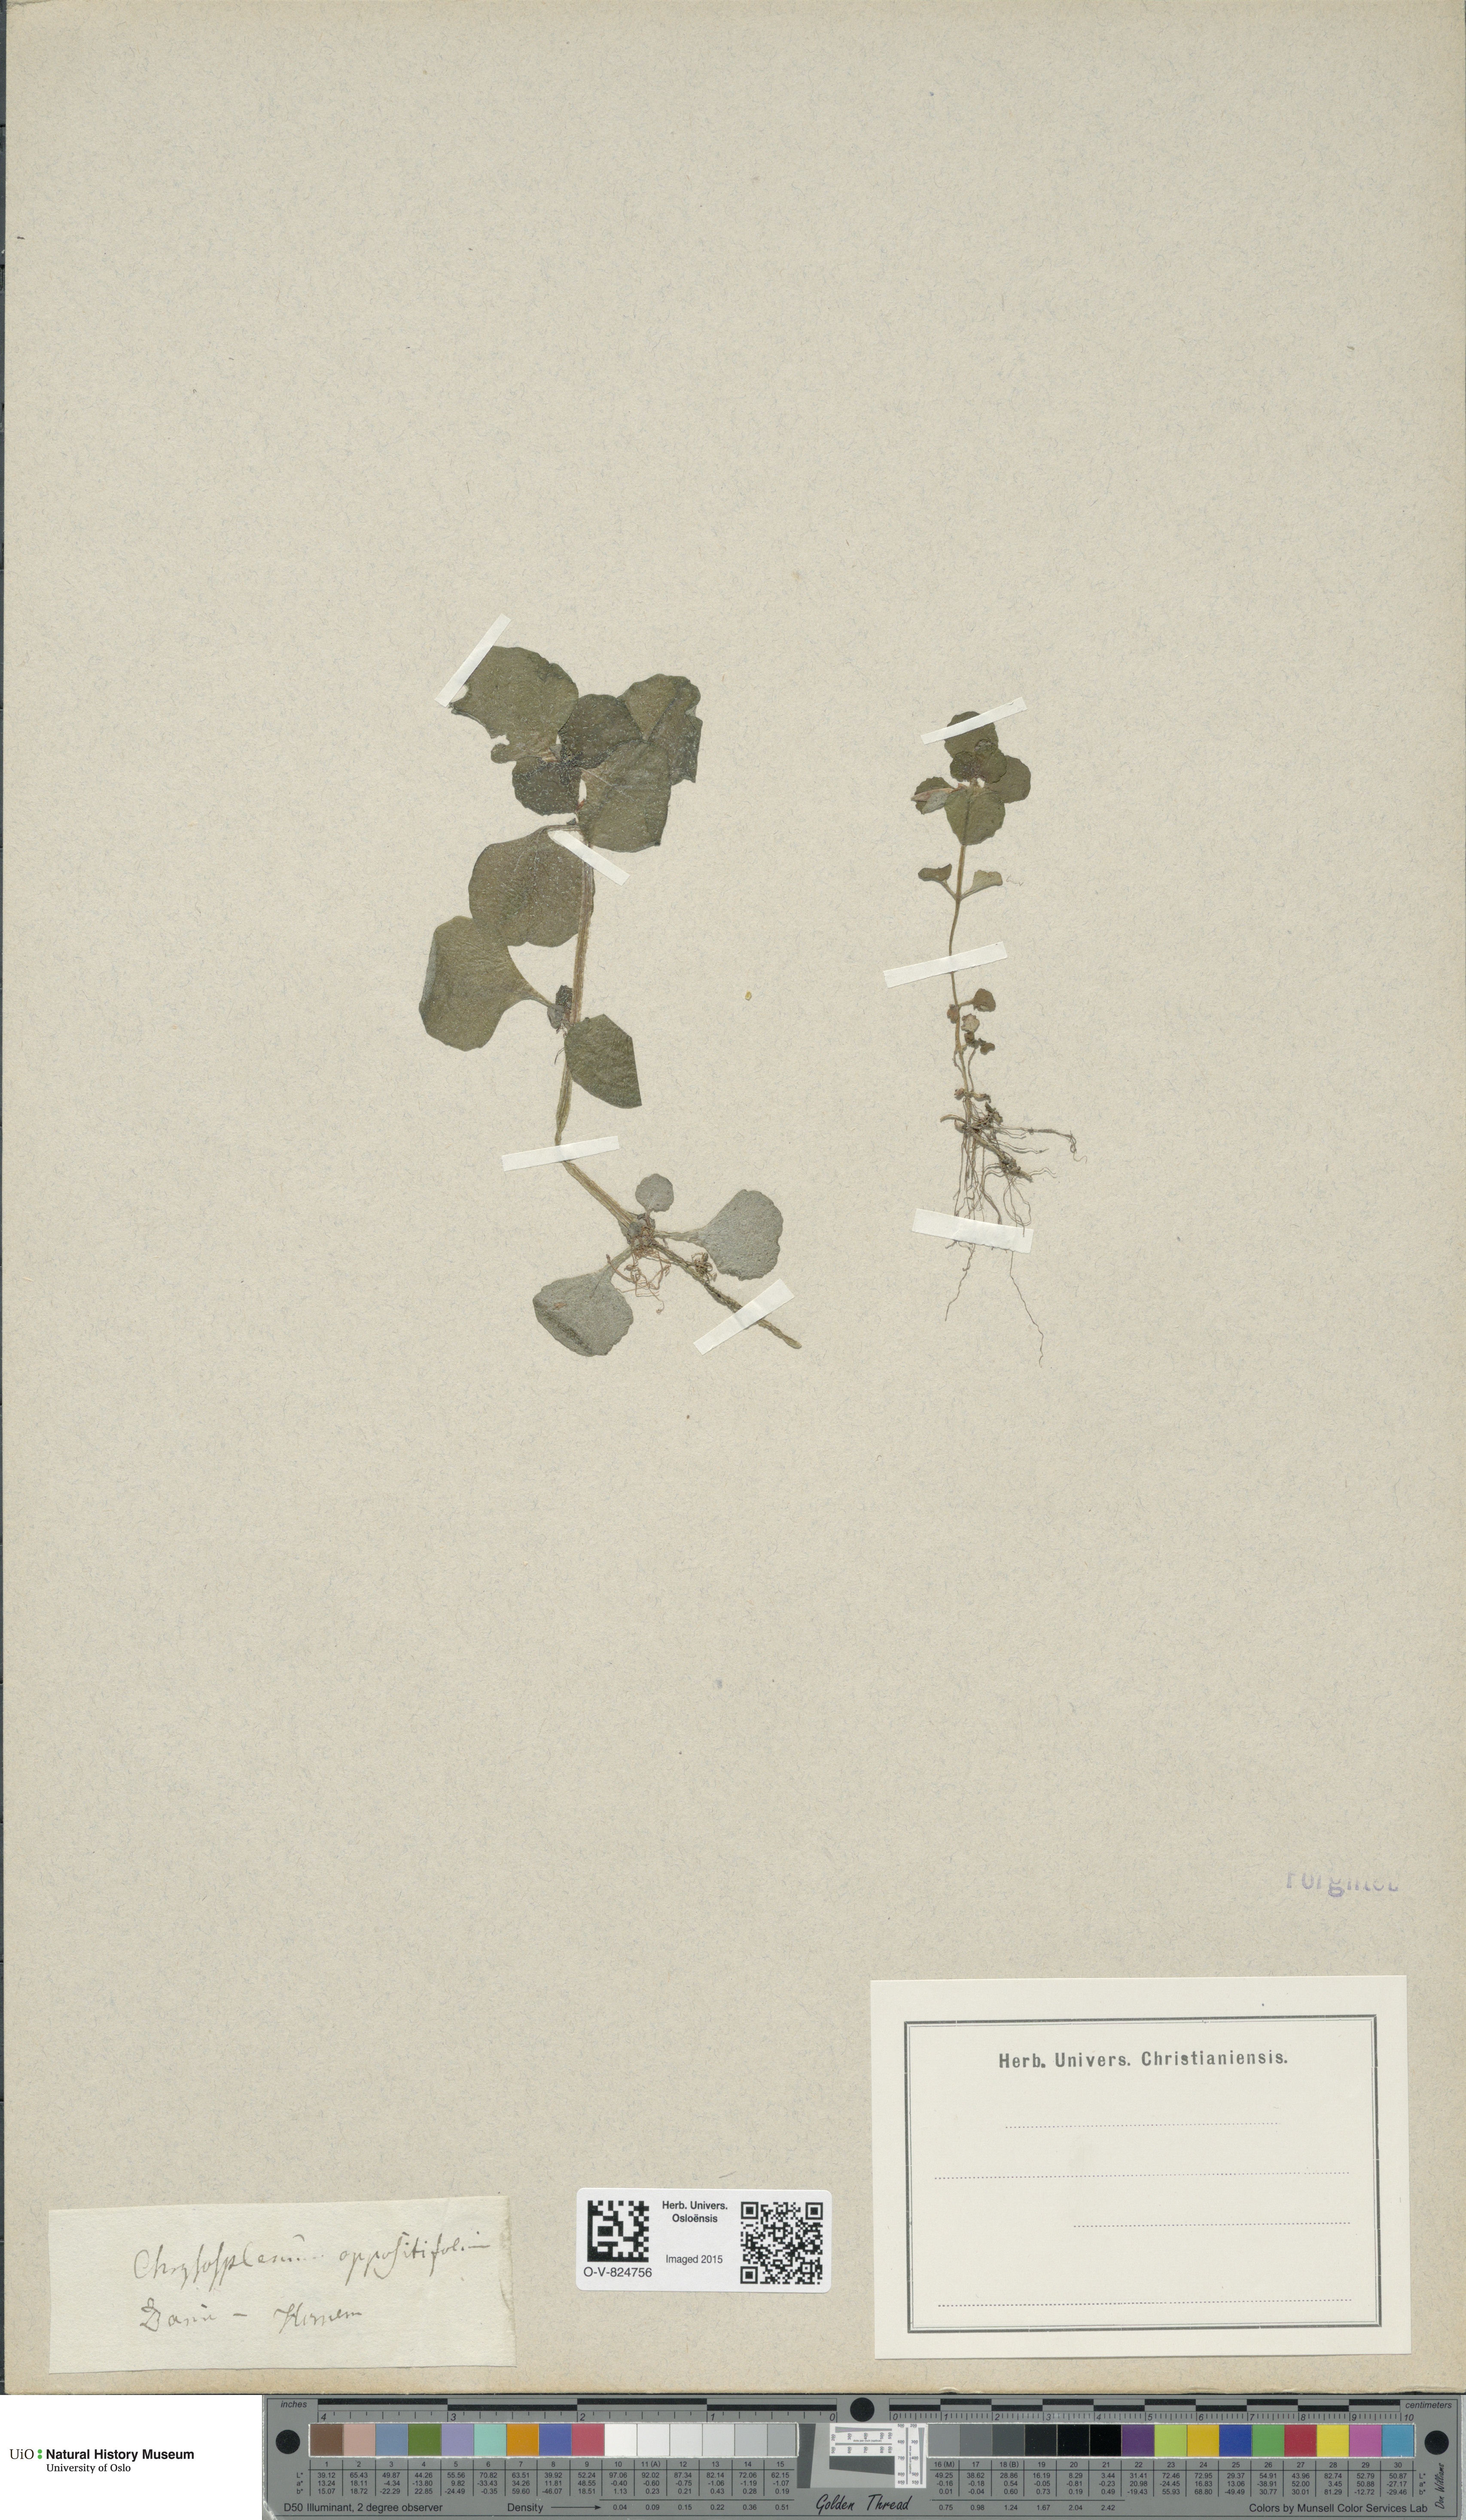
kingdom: Plantae
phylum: Tracheophyta
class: Magnoliopsida
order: Saxifragales
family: Saxifragaceae
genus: Chrysosplenium
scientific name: Chrysosplenium oppositifolium
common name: Opposite-leaved golden-saxifrage
